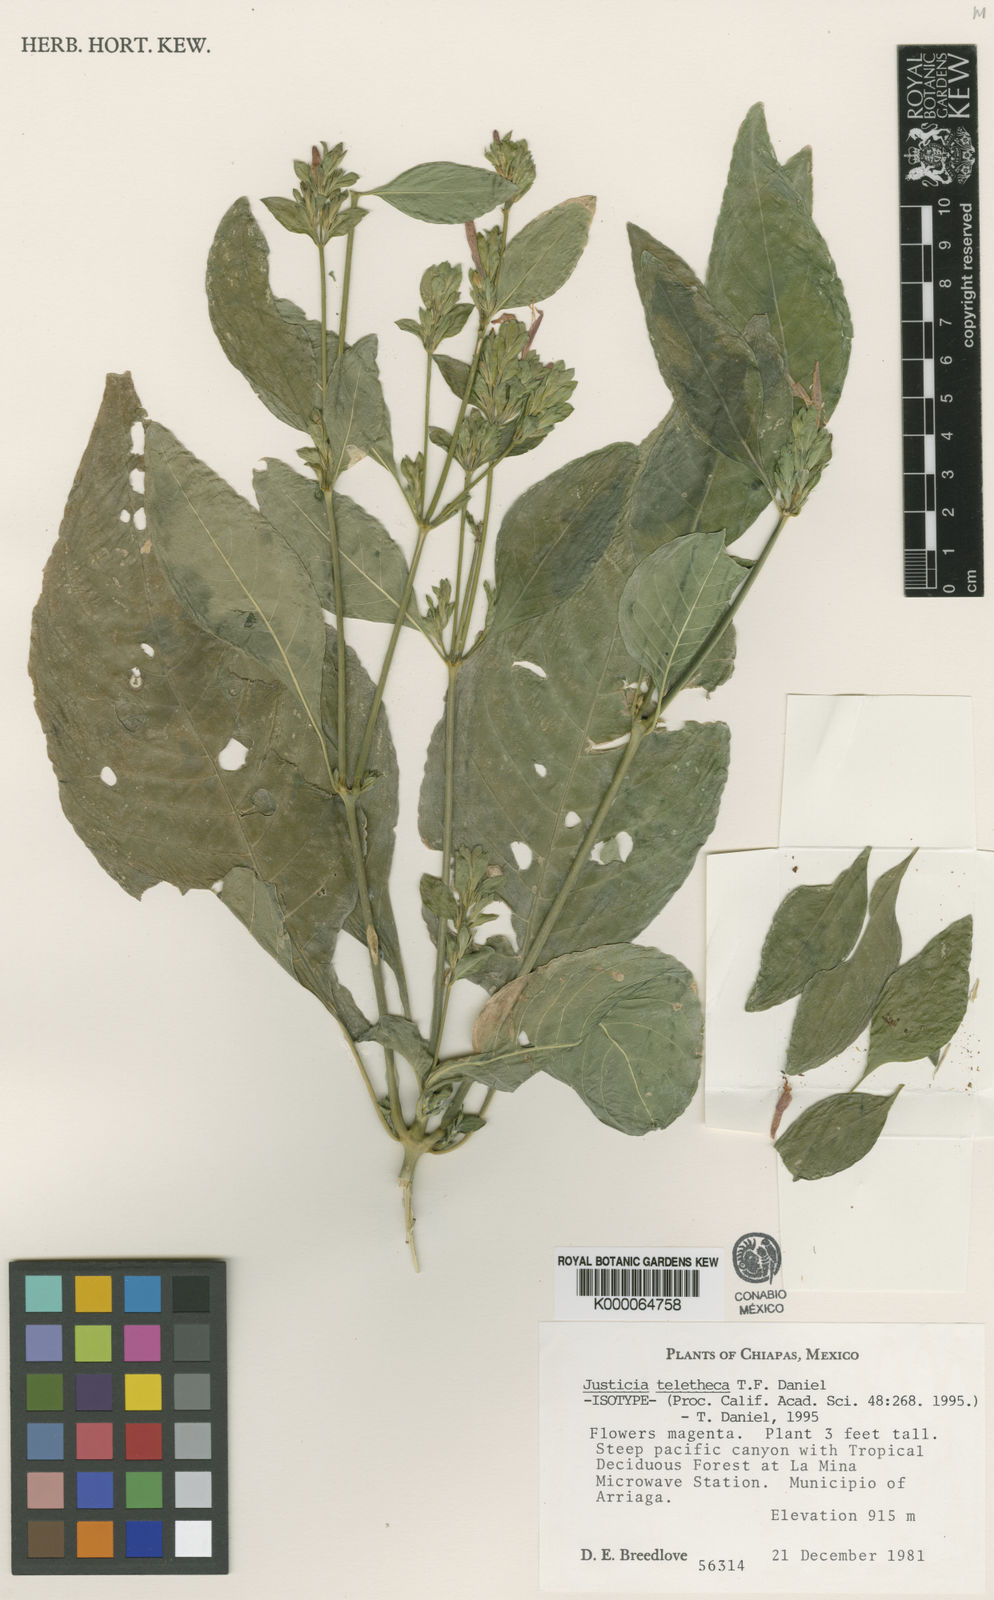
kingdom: Plantae
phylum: Tracheophyta
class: Magnoliopsida
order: Lamiales
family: Acanthaceae
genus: Justicia
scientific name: Justicia teletheca
